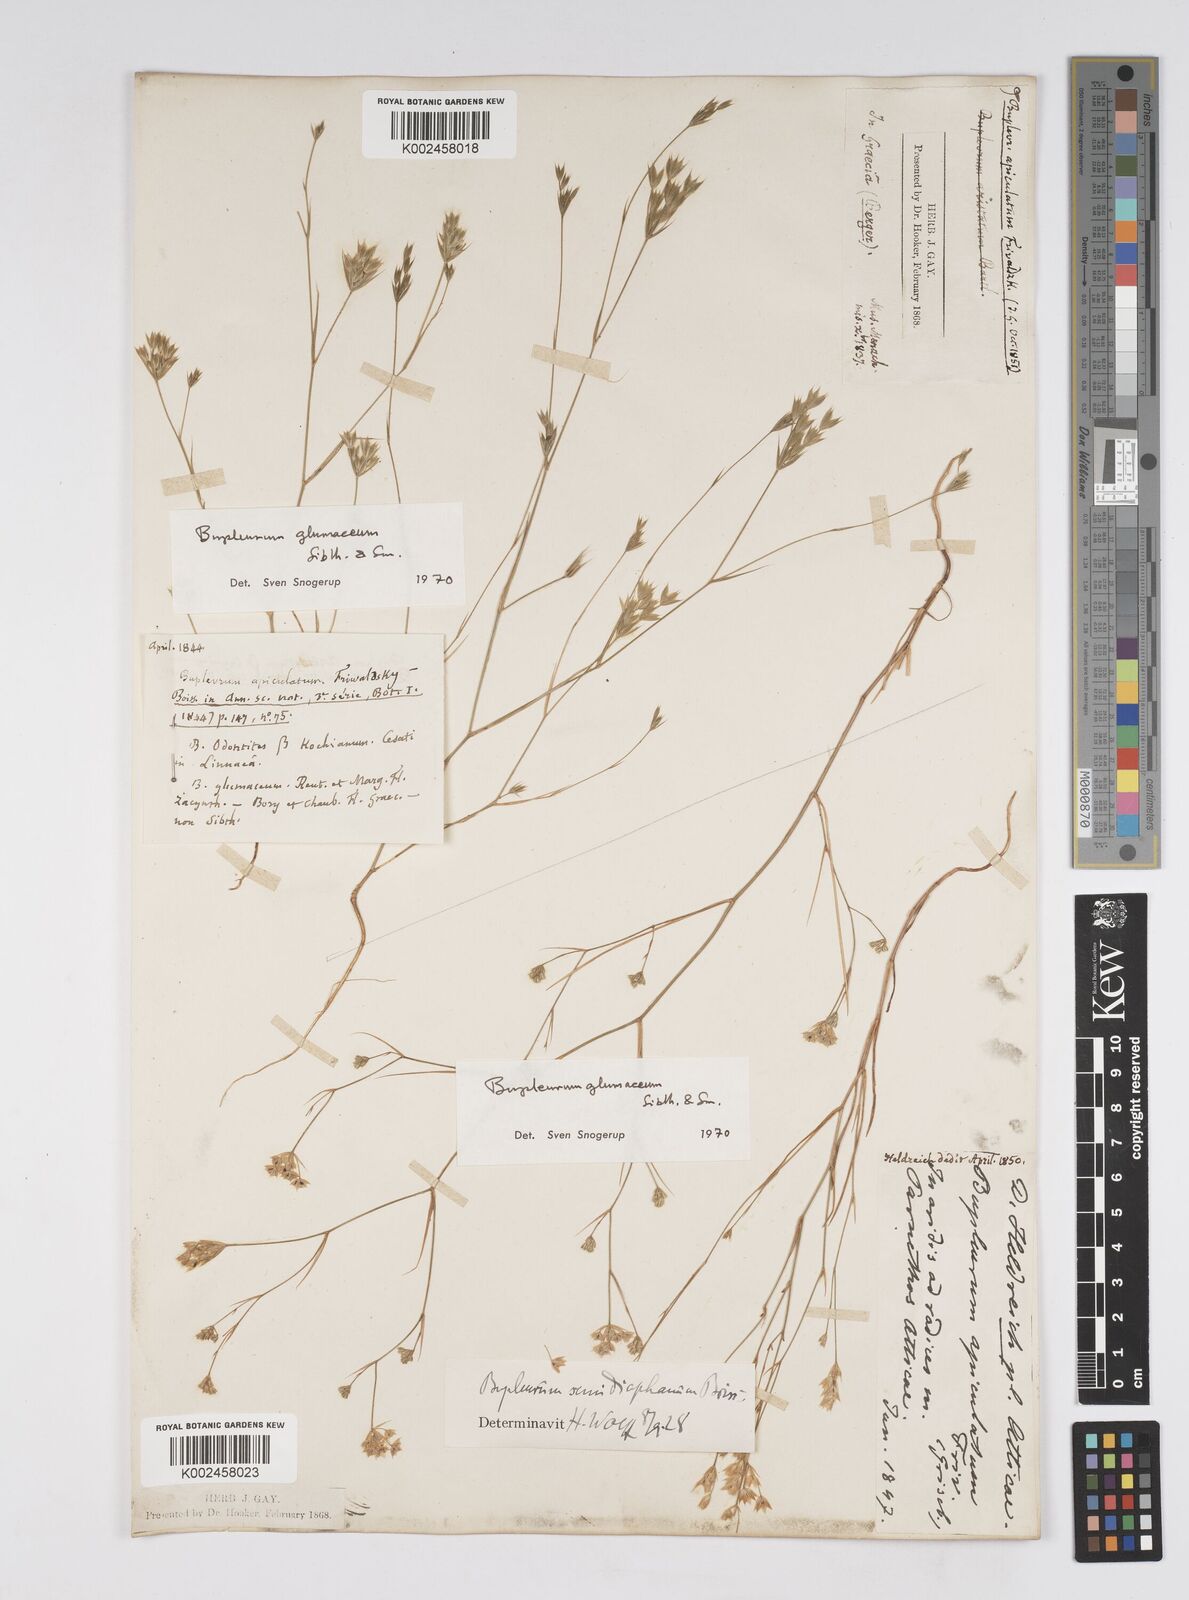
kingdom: Plantae
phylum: Tracheophyta
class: Magnoliopsida
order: Apiales
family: Apiaceae
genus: Bupleurum
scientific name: Bupleurum glumaceum
